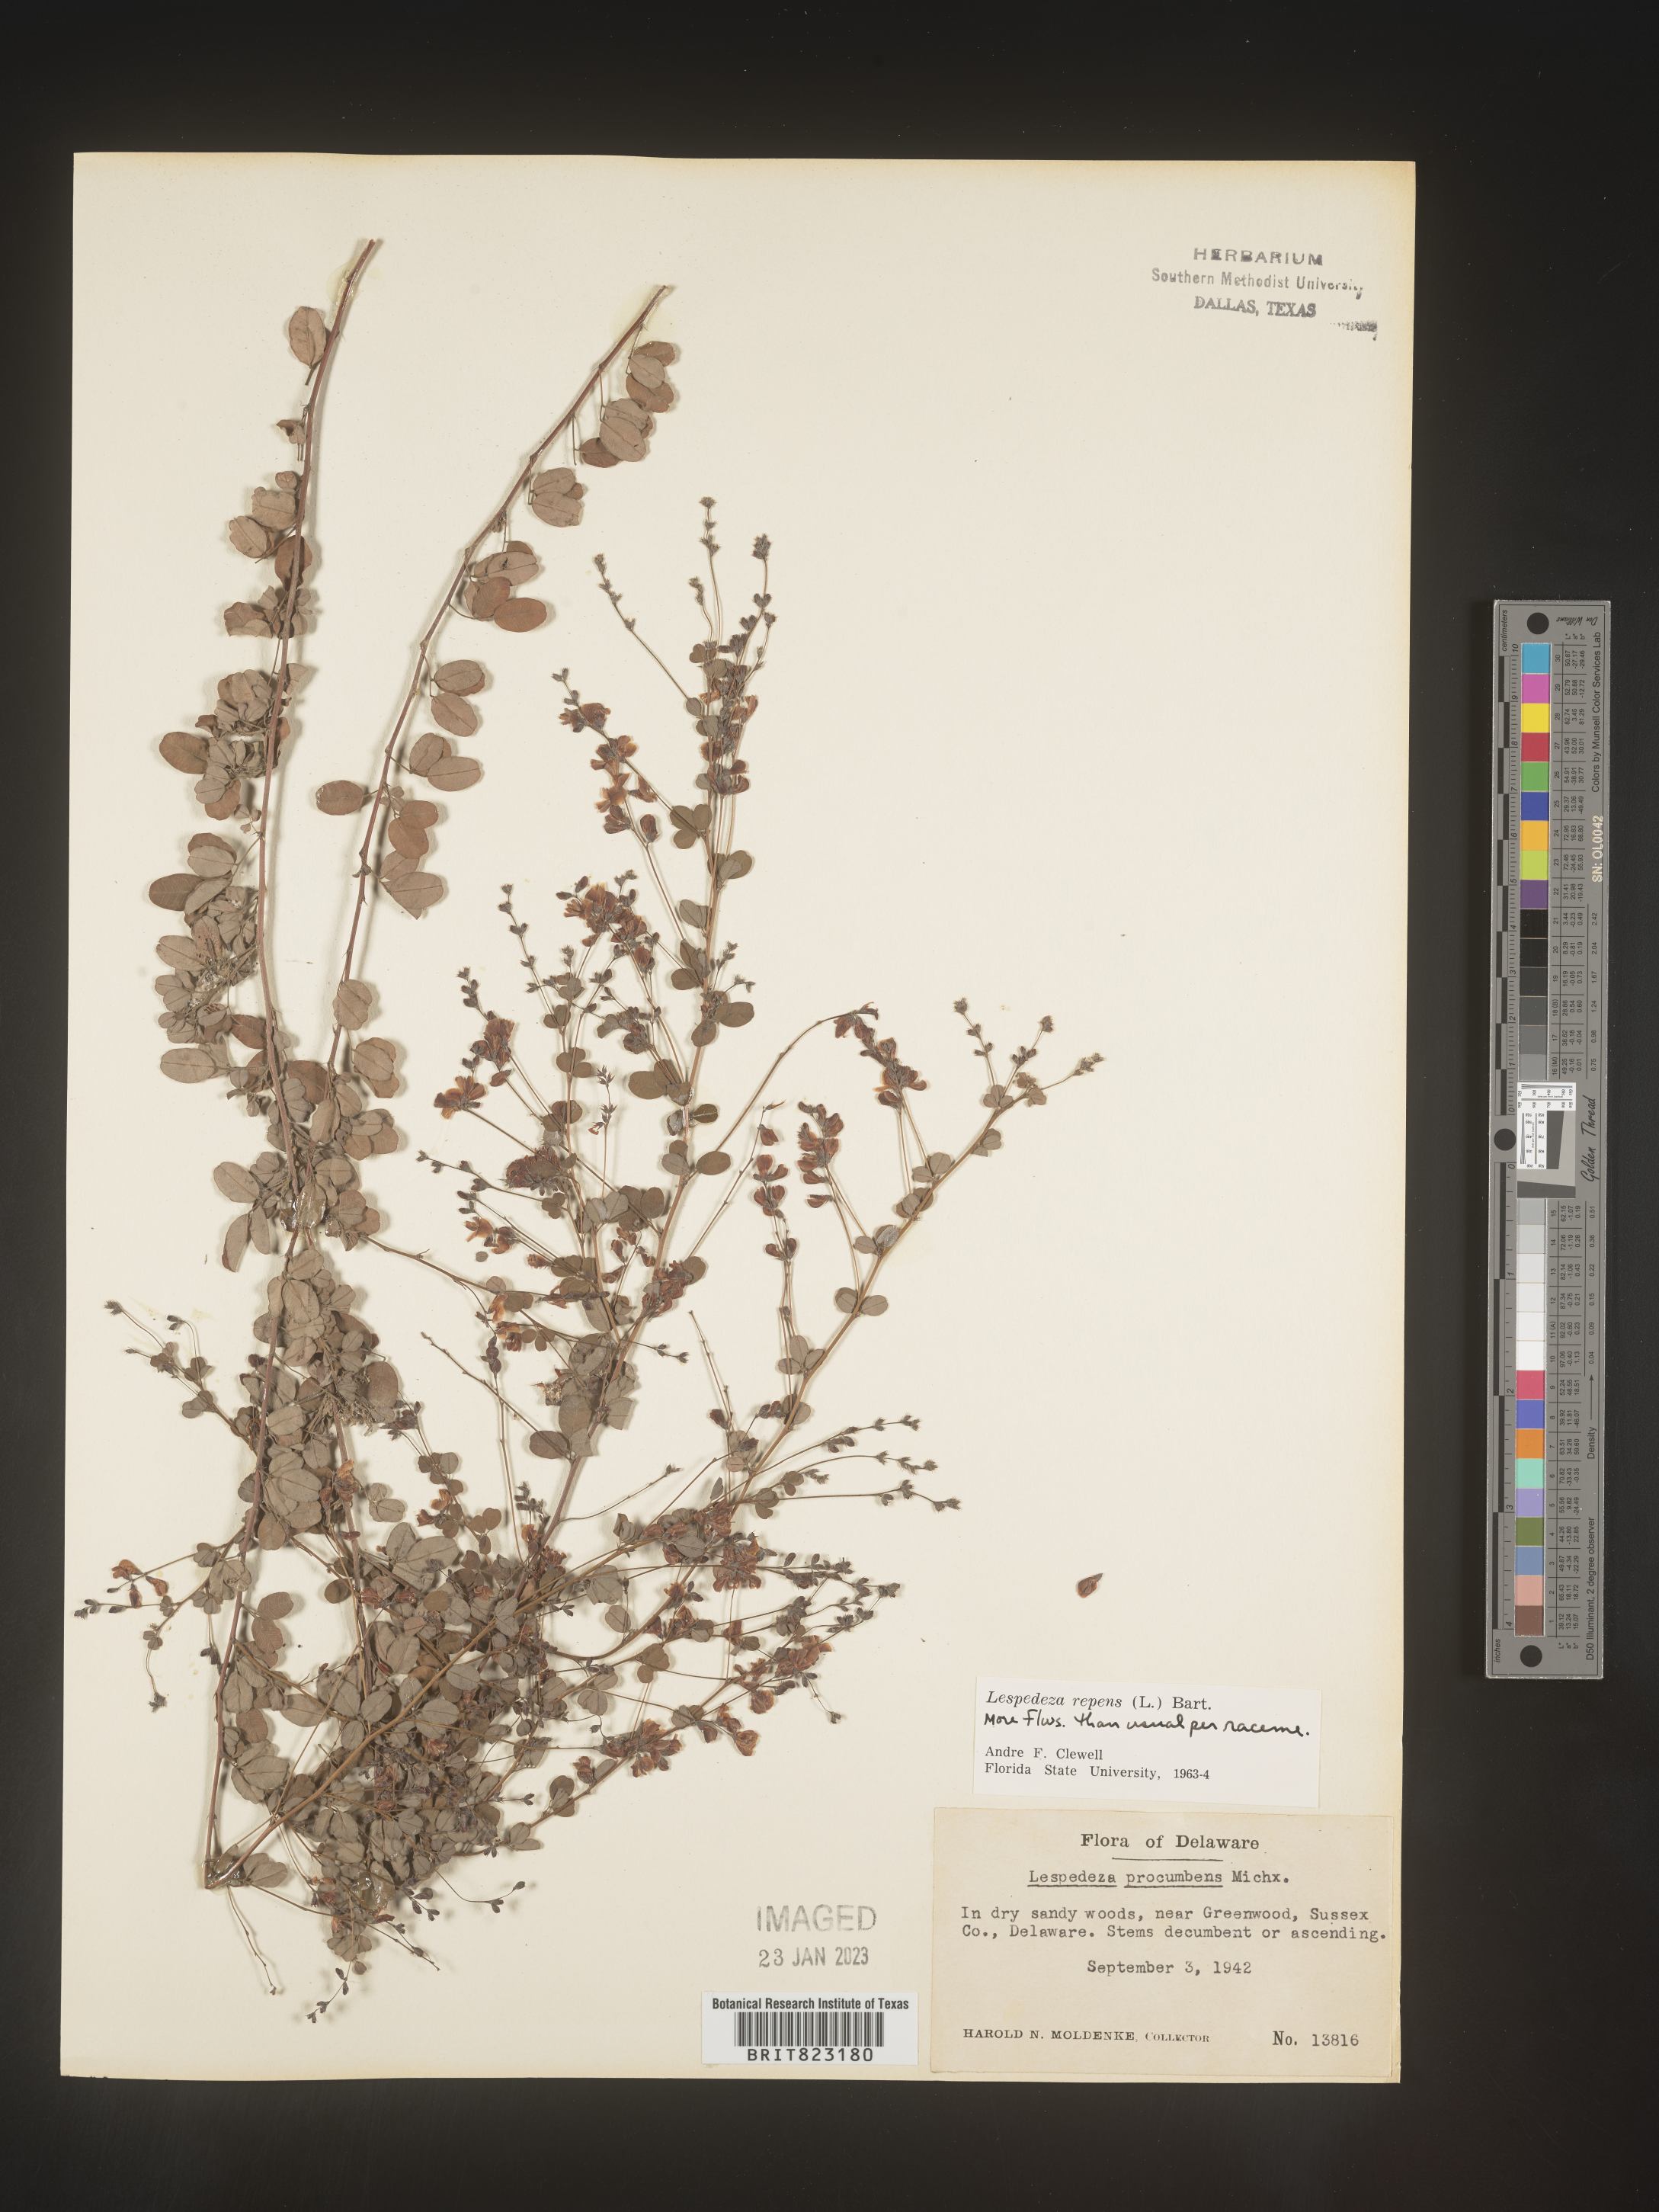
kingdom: Plantae
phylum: Tracheophyta
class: Magnoliopsida
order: Fabales
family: Fabaceae
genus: Lespedeza
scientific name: Lespedeza repens
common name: Creeping bush-clover
